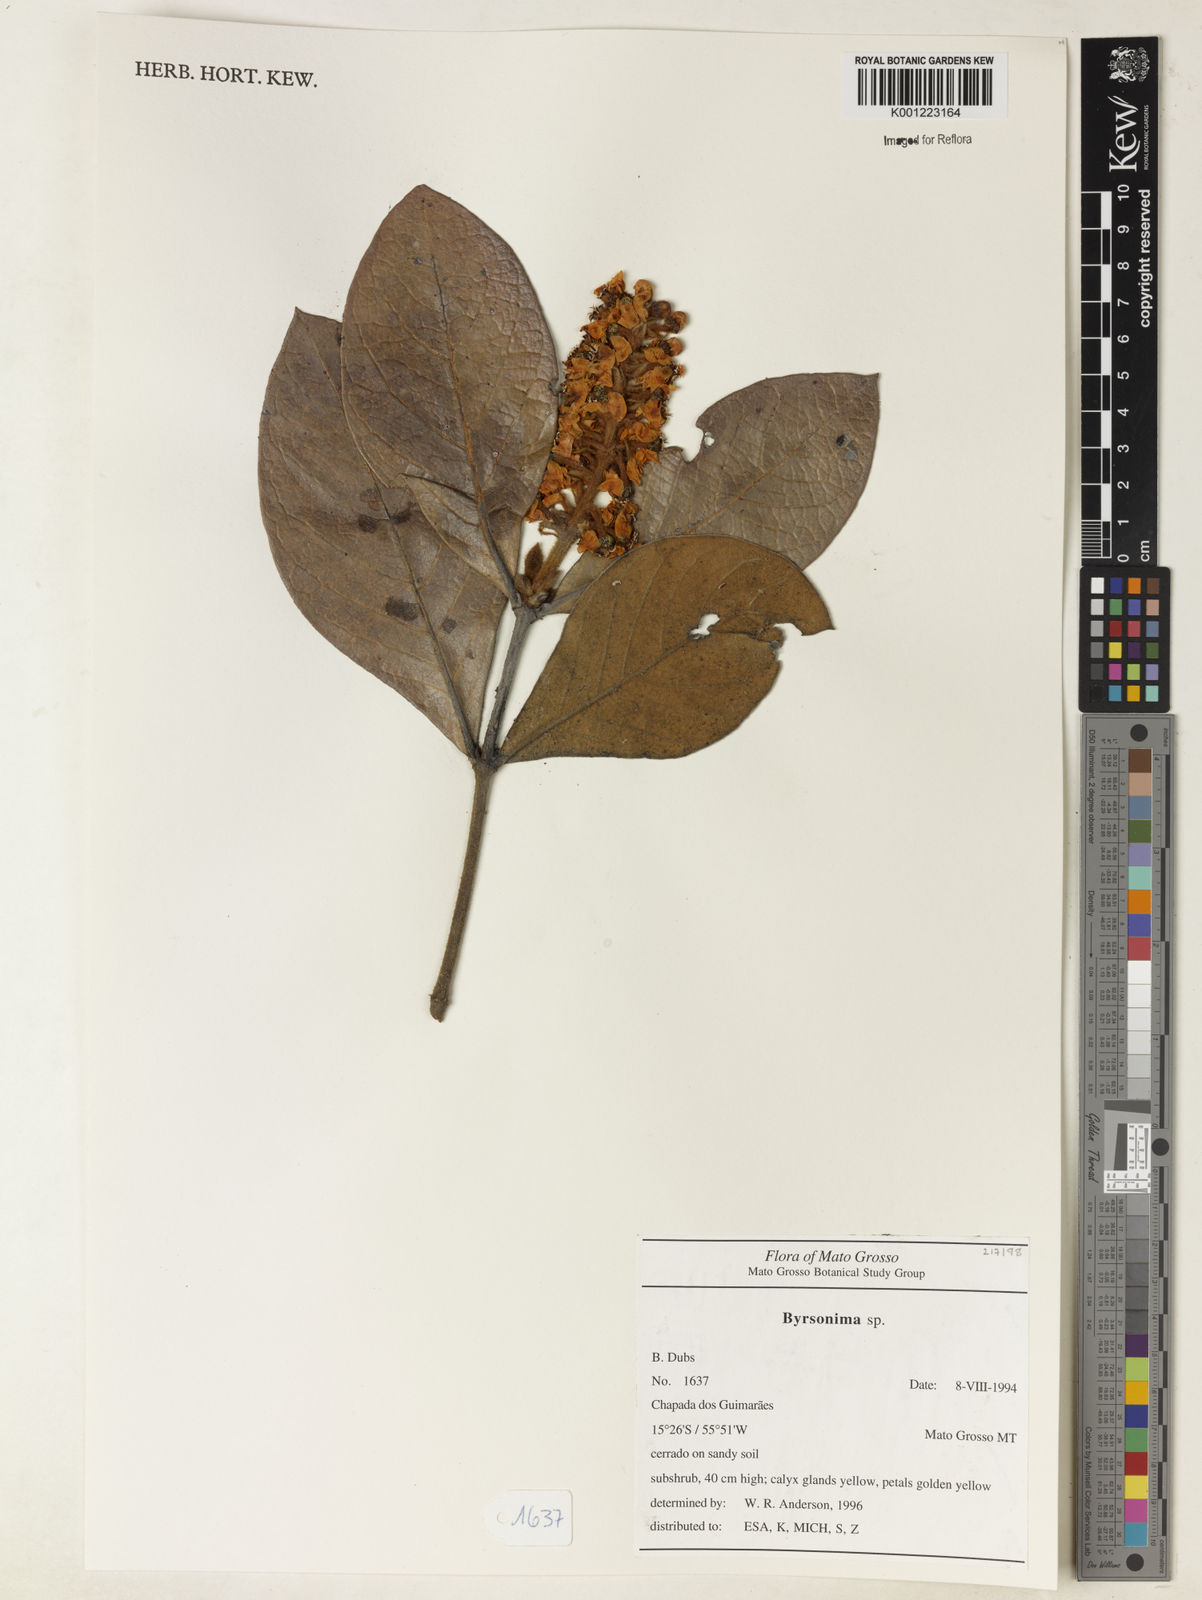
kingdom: Plantae
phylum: Tracheophyta
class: Magnoliopsida
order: Malpighiales
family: Malpighiaceae
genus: Byrsonima
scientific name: Byrsonima
